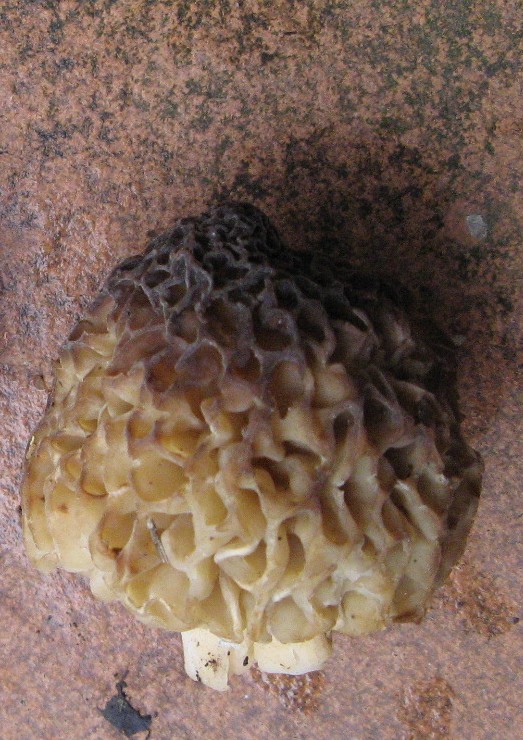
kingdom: Fungi
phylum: Ascomycota
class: Pezizomycetes
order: Pezizales
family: Morchellaceae
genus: Morchella
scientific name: Morchella esculenta
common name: almindelig morkel
